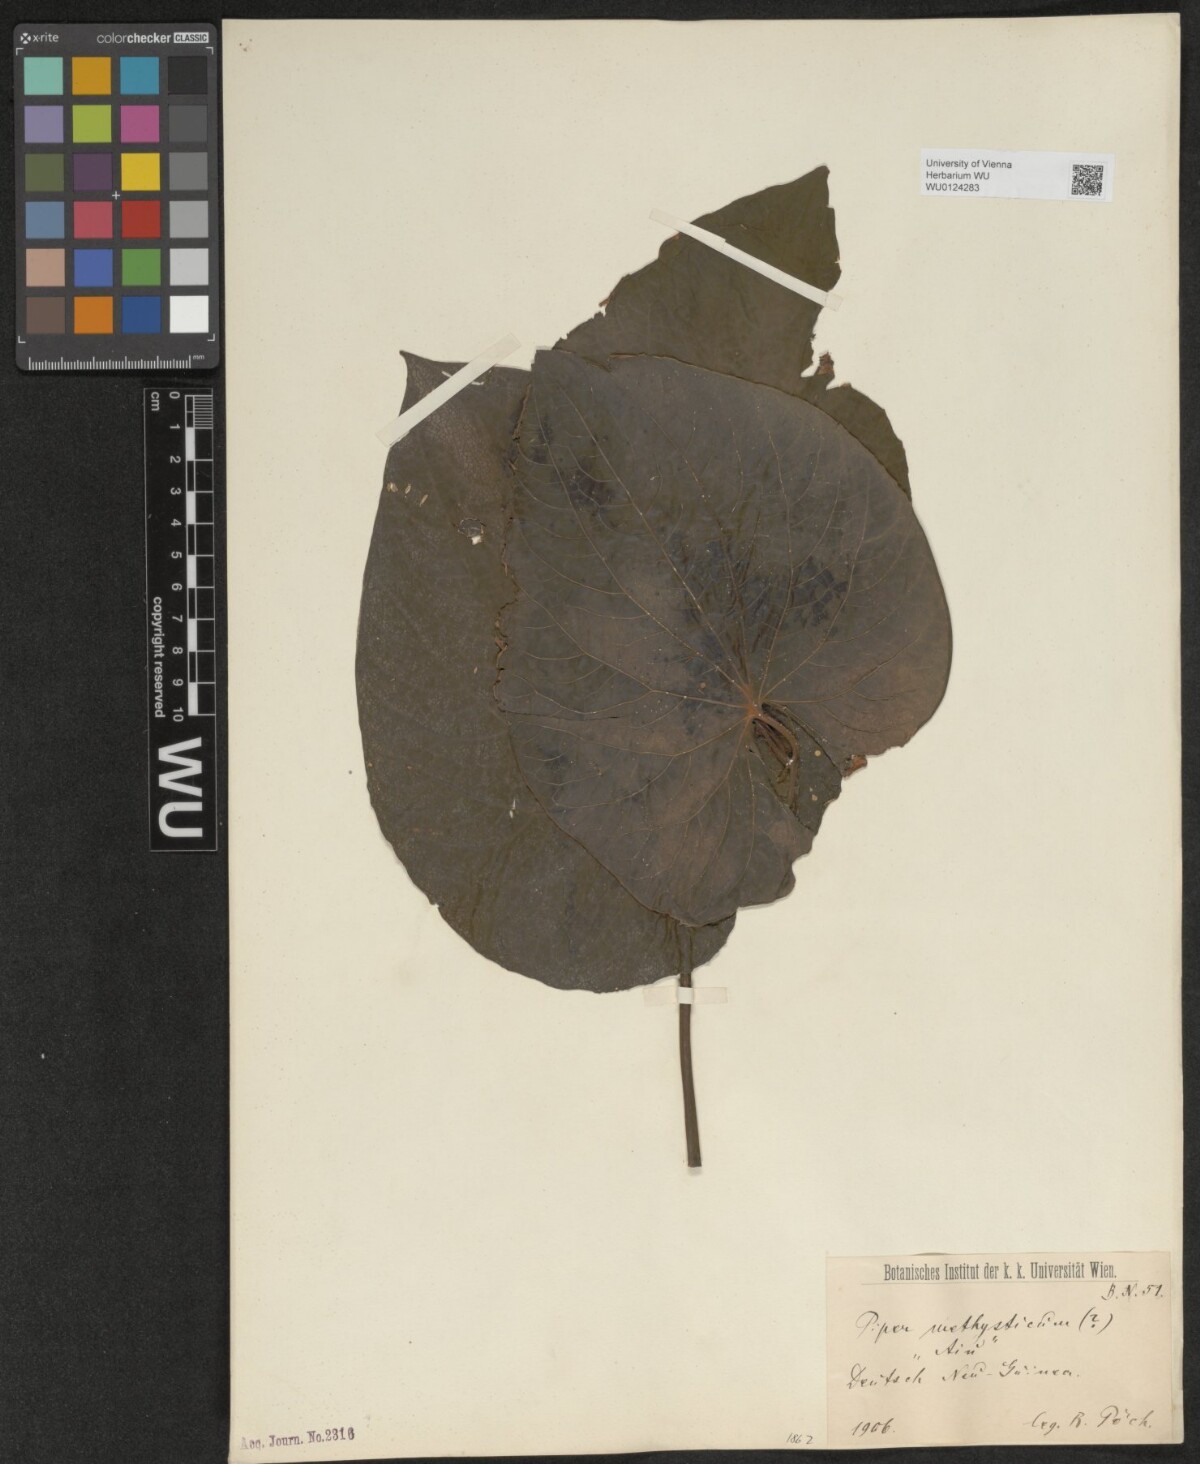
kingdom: Plantae
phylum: Tracheophyta
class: Magnoliopsida
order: Piperales
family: Piperaceae
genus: Piper
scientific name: Piper
